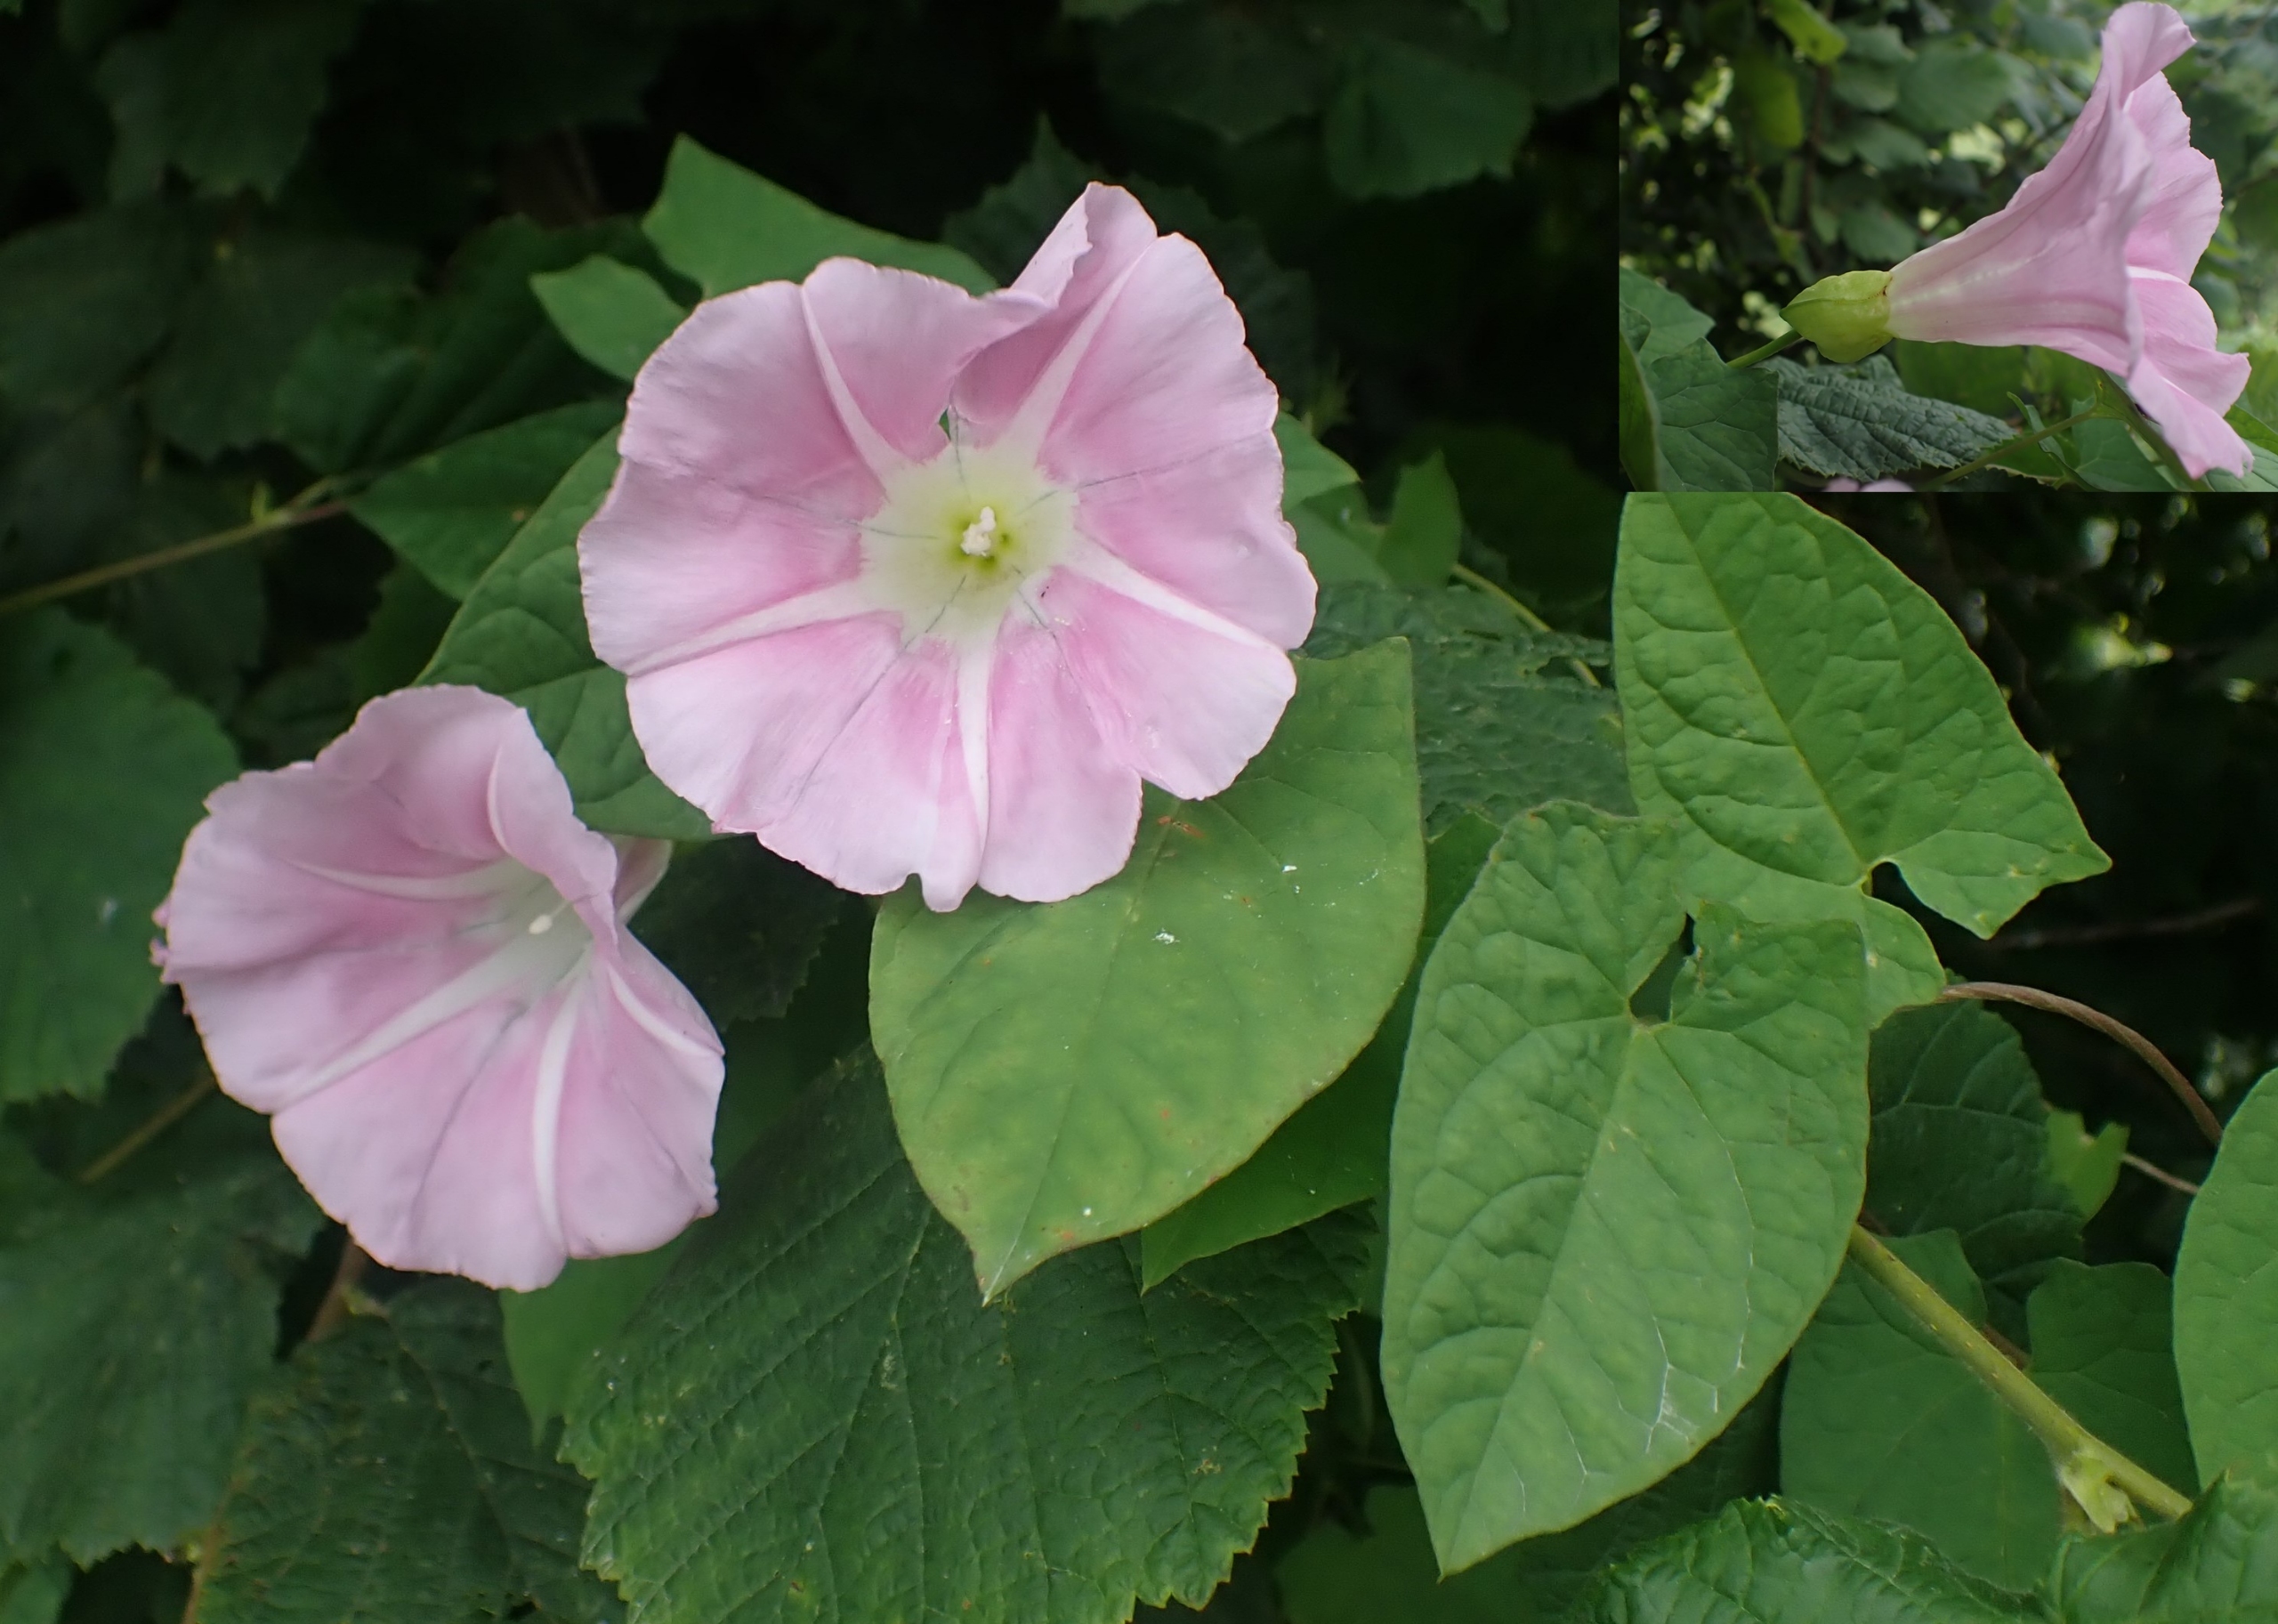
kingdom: Plantae
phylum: Tracheophyta
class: Magnoliopsida
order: Solanales
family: Convolvulaceae
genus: Calystegia
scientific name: Calystegia pulchra
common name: Have-snerle
